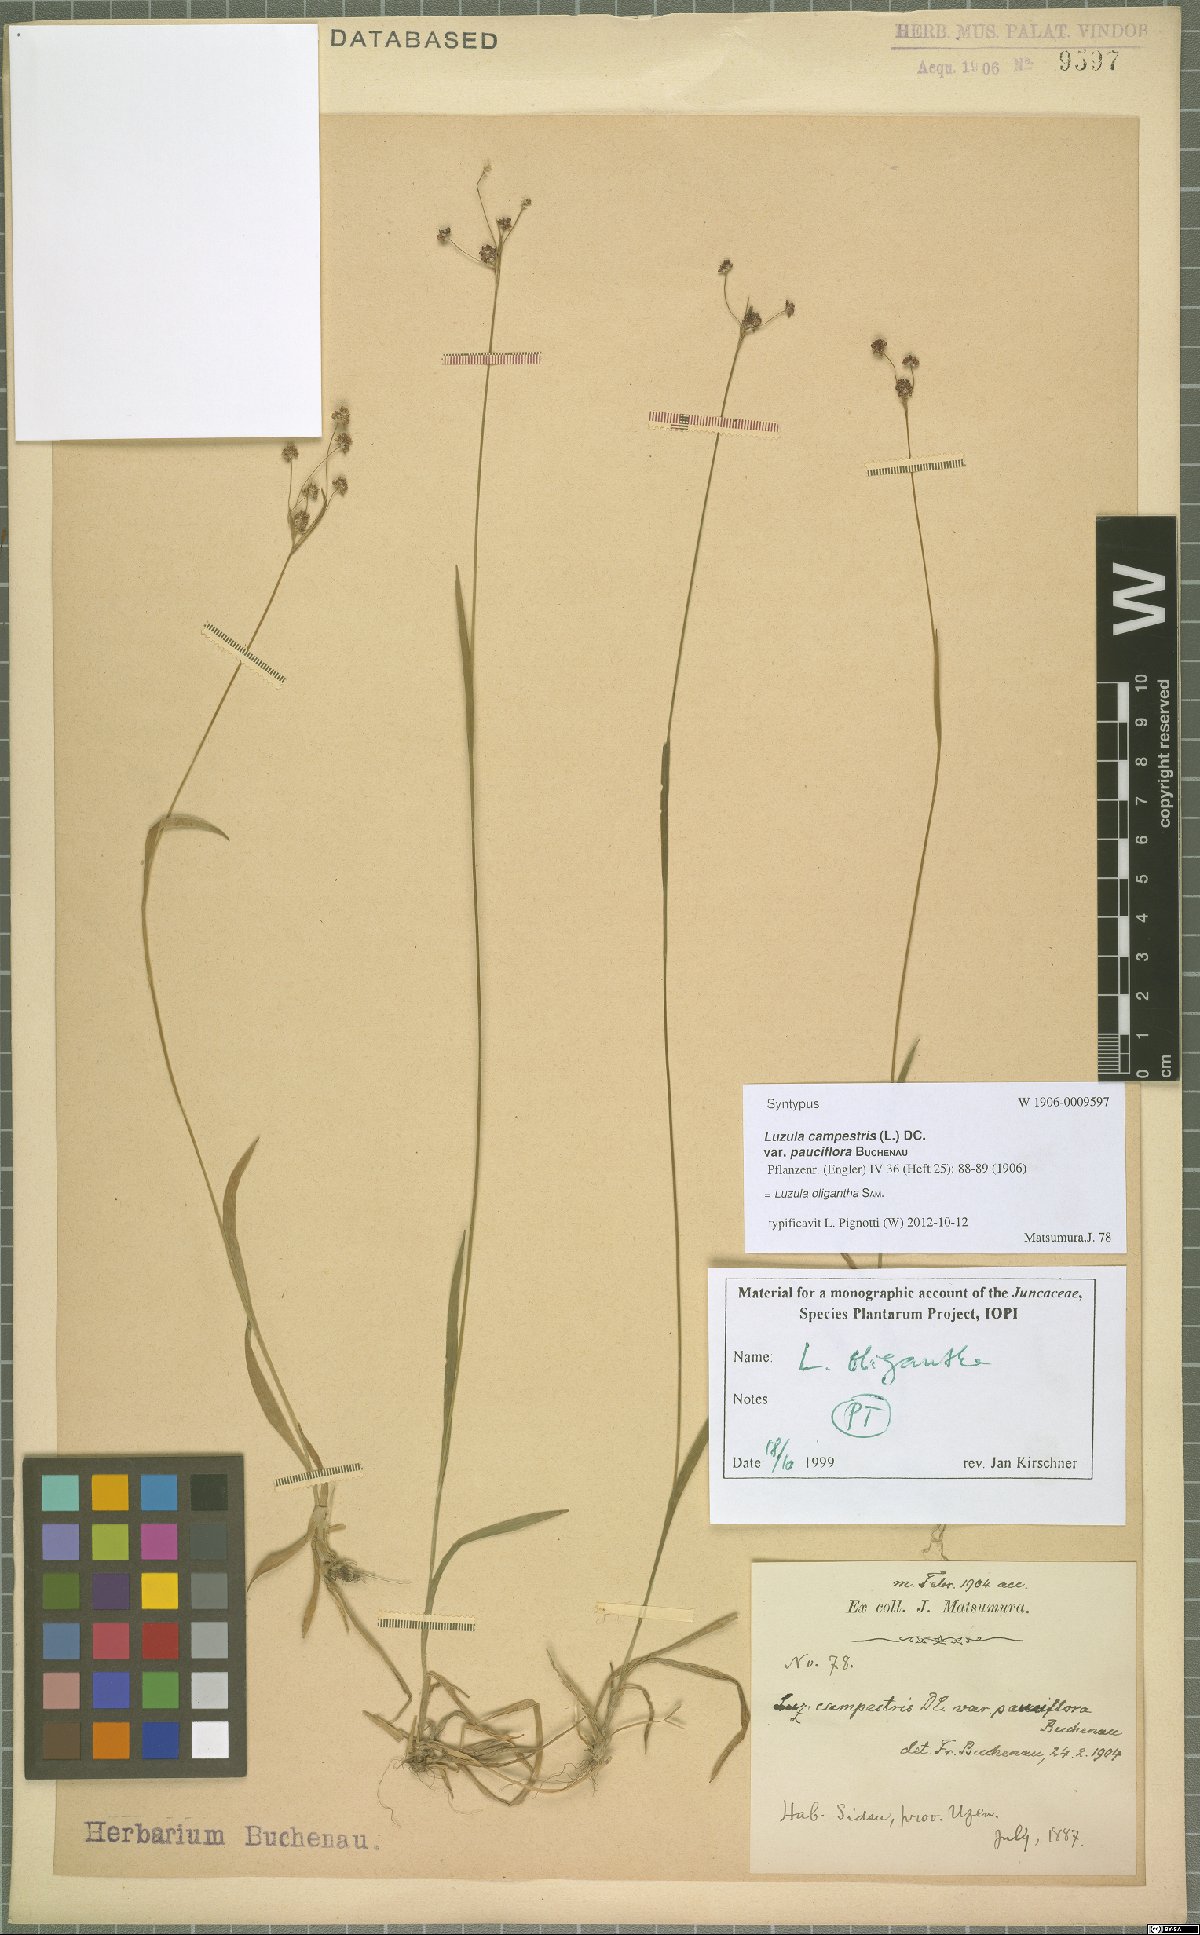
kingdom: Plantae
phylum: Tracheophyta
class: Liliopsida
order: Poales
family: Juncaceae
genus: Luzula
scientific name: Luzula oligantha
